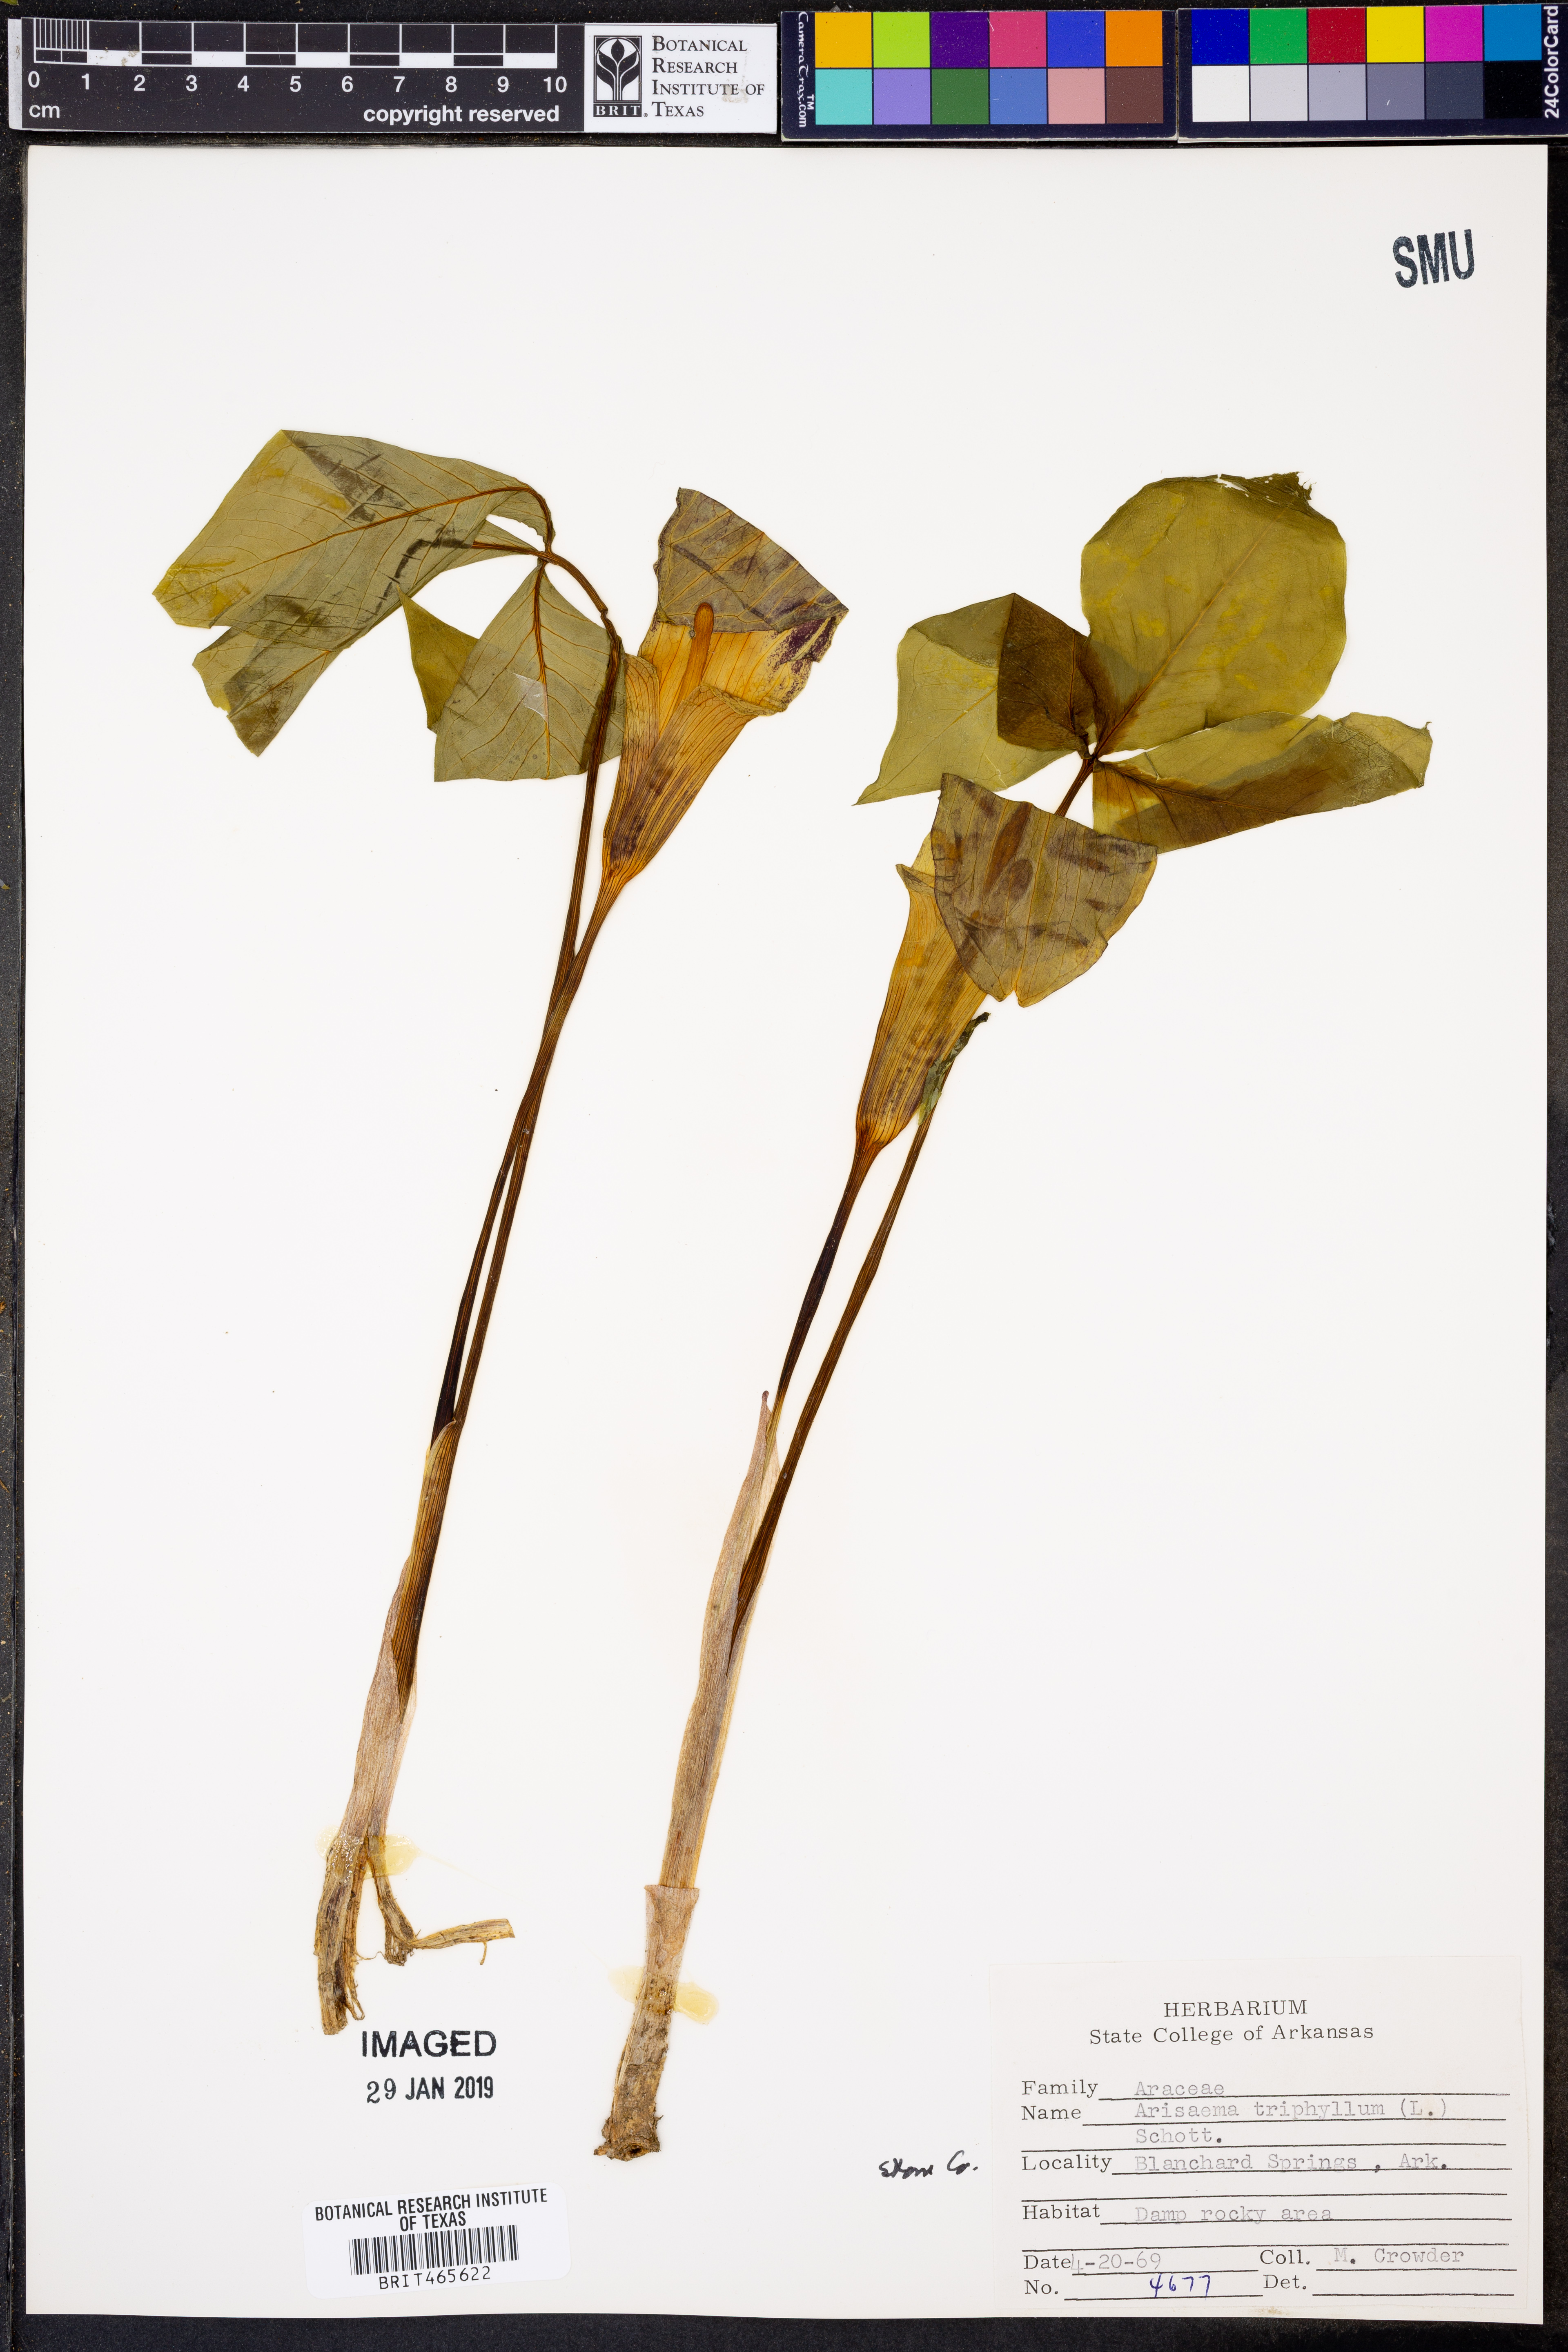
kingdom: Plantae
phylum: Tracheophyta
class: Liliopsida
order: Alismatales
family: Araceae
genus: Arisaema
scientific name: Arisaema triphyllum
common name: Jack-in-the-pulpit
